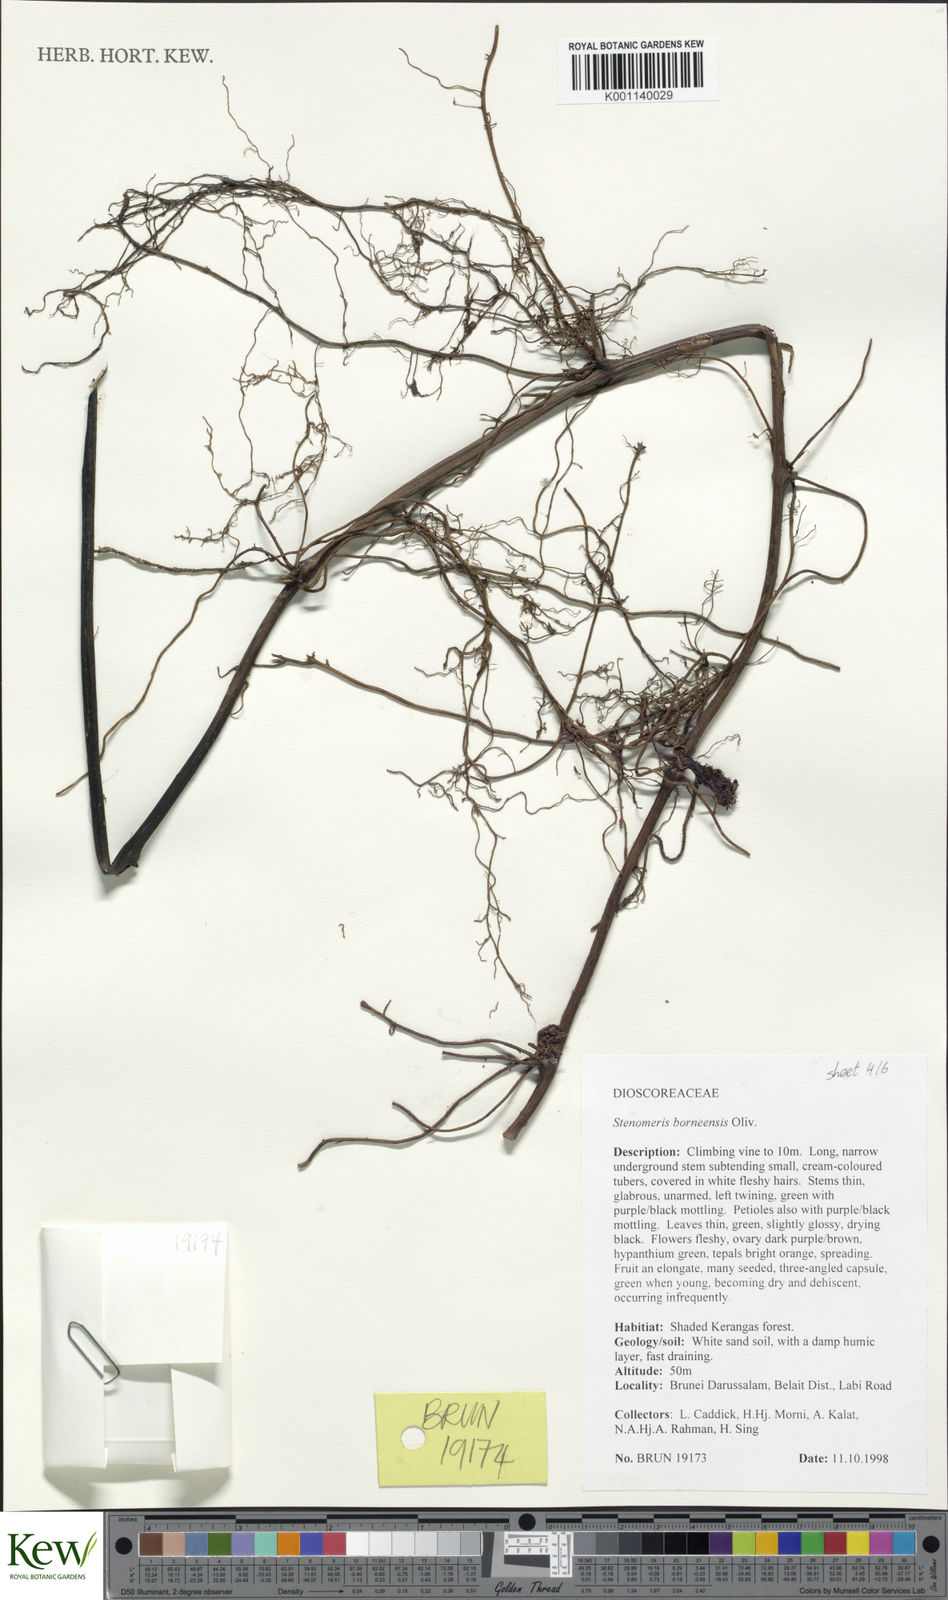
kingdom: Plantae
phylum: Tracheophyta
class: Liliopsida
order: Dioscoreales
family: Dioscoreaceae
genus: Stenomeris
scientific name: Stenomeris borneensis
